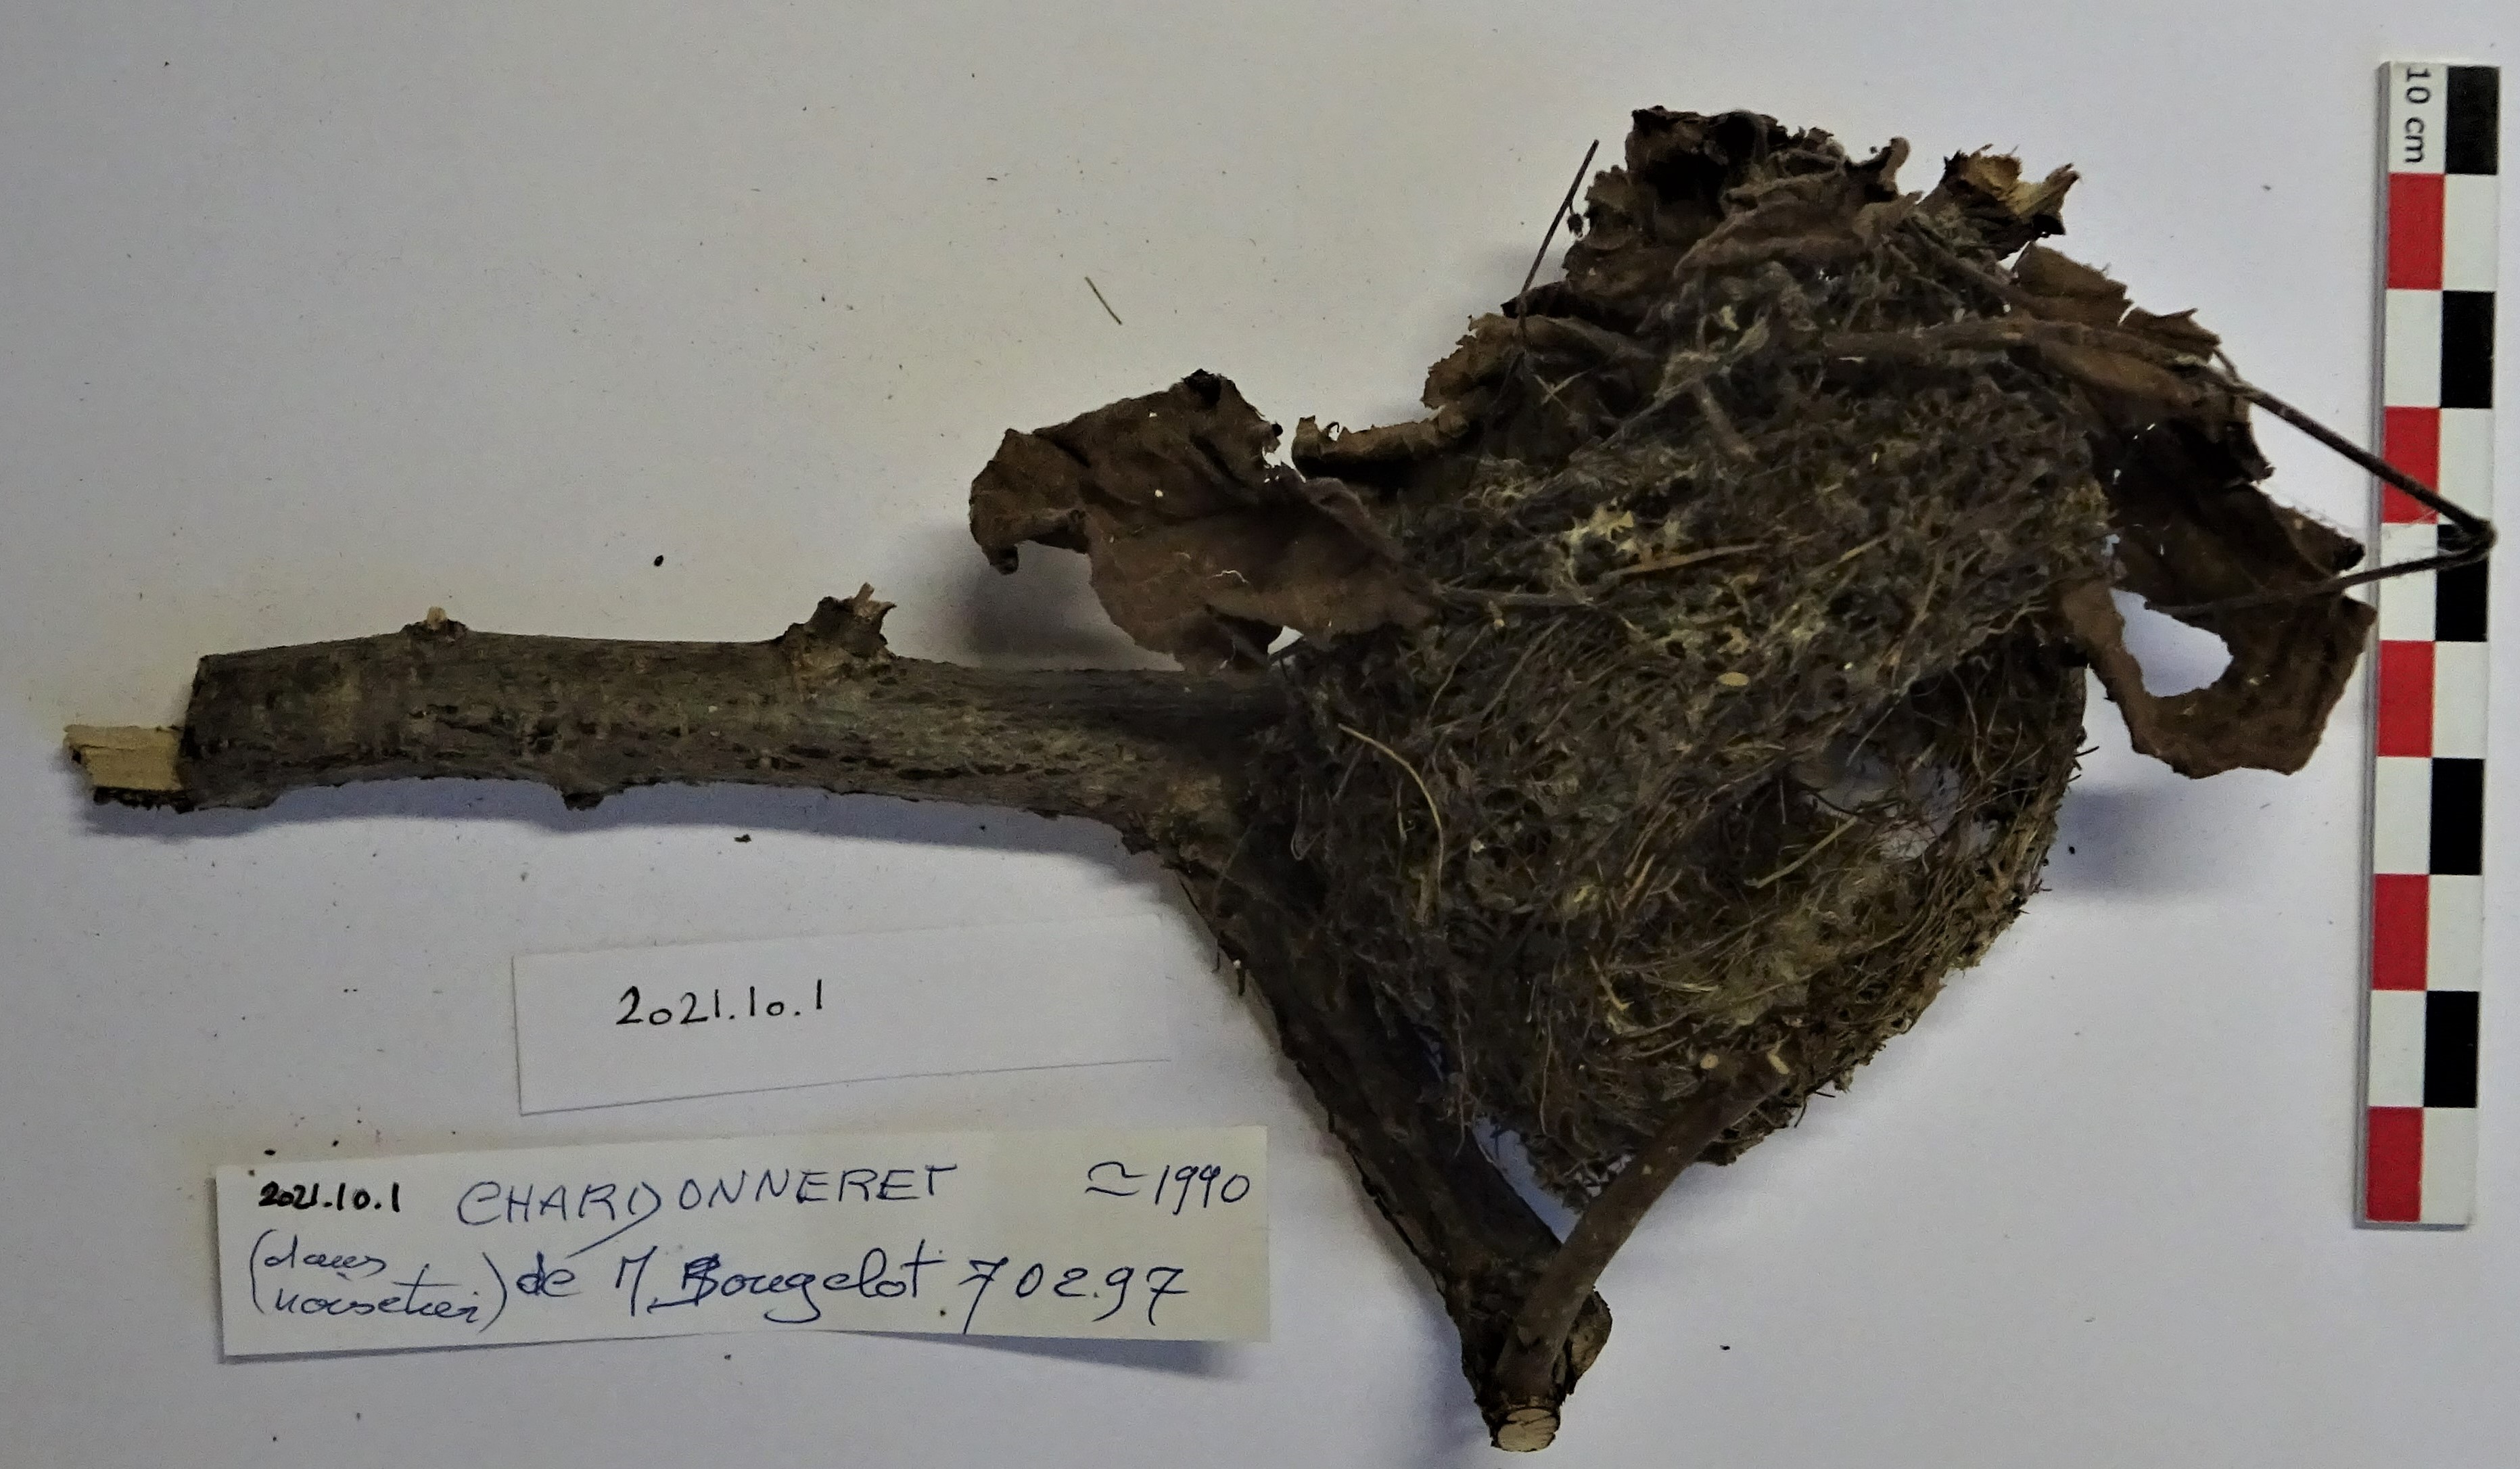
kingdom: Animalia
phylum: Chordata
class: Aves
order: Passeriformes
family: Fringillidae
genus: Carduelis
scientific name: Carduelis carduelis
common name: European goldfinch
